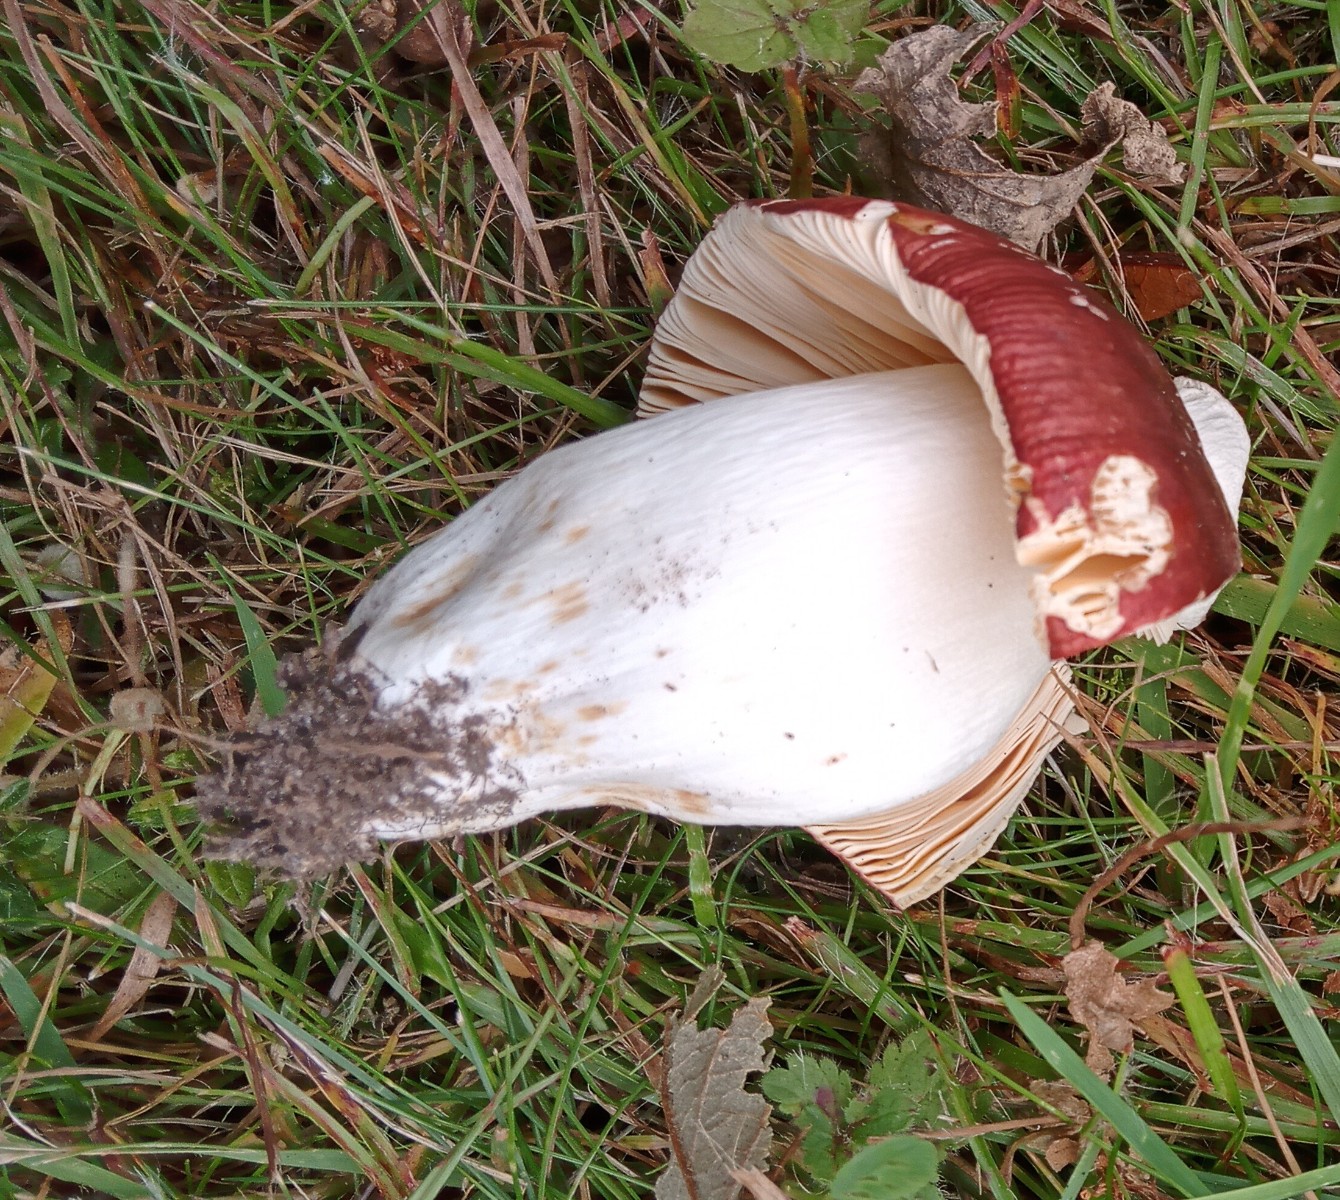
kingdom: Fungi
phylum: Basidiomycota
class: Agaricomycetes
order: Russulales
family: Russulaceae
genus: Russula
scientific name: Russula cuprea
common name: kanel-skørhat
